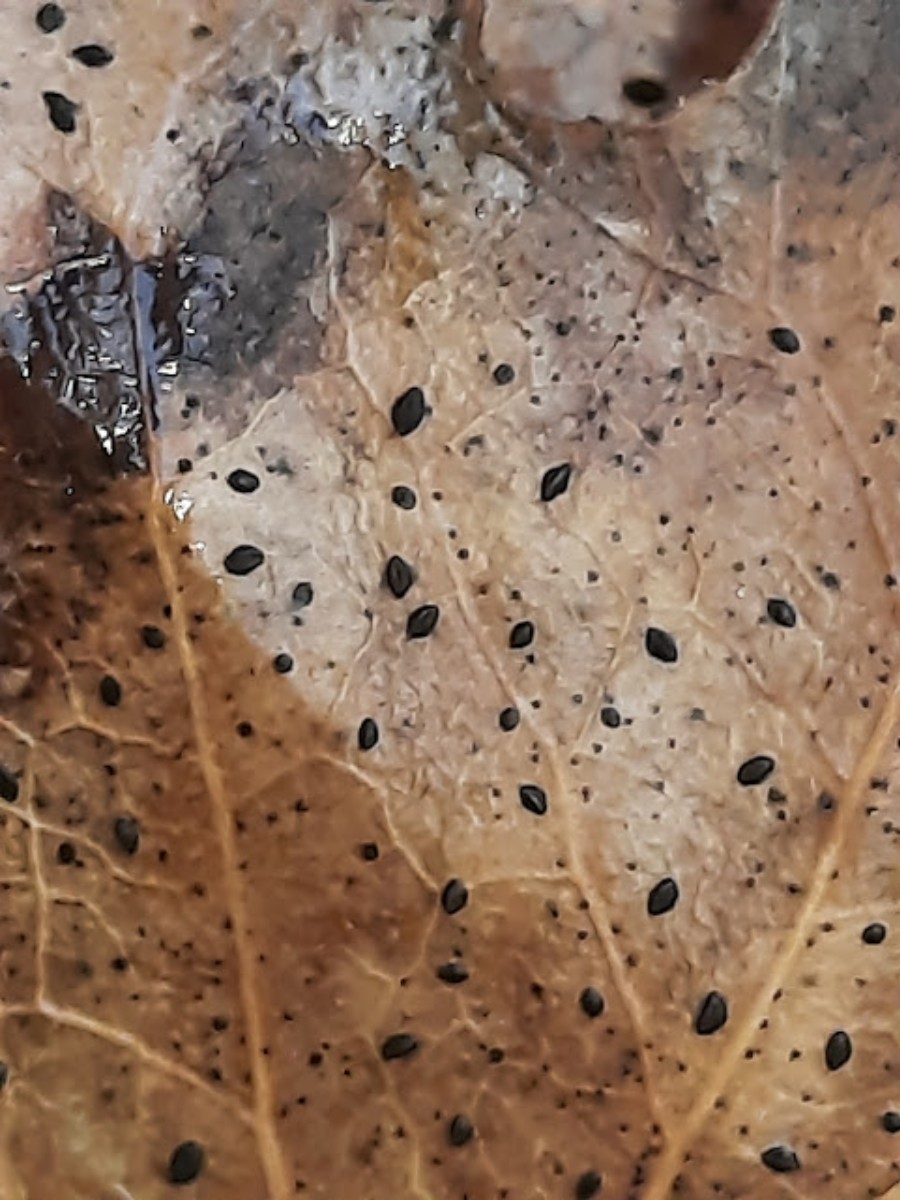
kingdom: Fungi
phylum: Ascomycota
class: Leotiomycetes
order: Rhytismatales
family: Rhytismataceae
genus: Hypoderma
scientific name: Hypoderma hederae
